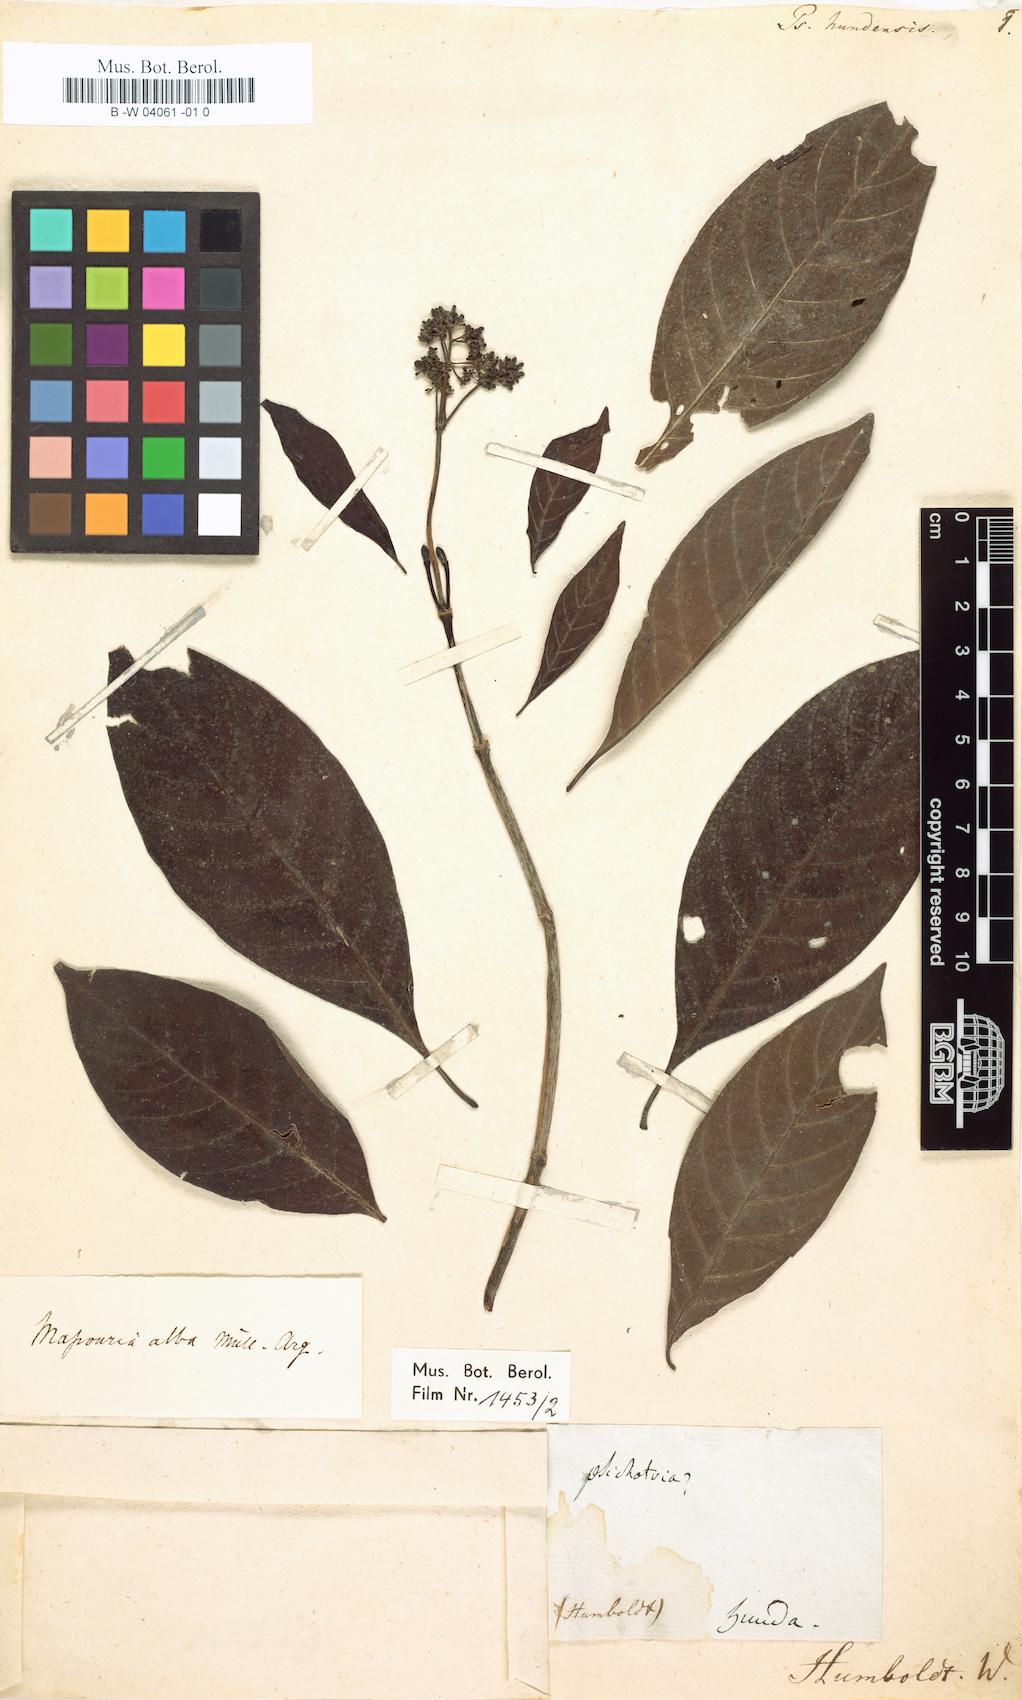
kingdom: Plantae
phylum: Tracheophyta
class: Magnoliopsida
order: Gentianales
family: Rubiaceae
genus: Psychotria
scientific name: Psychotria alba
